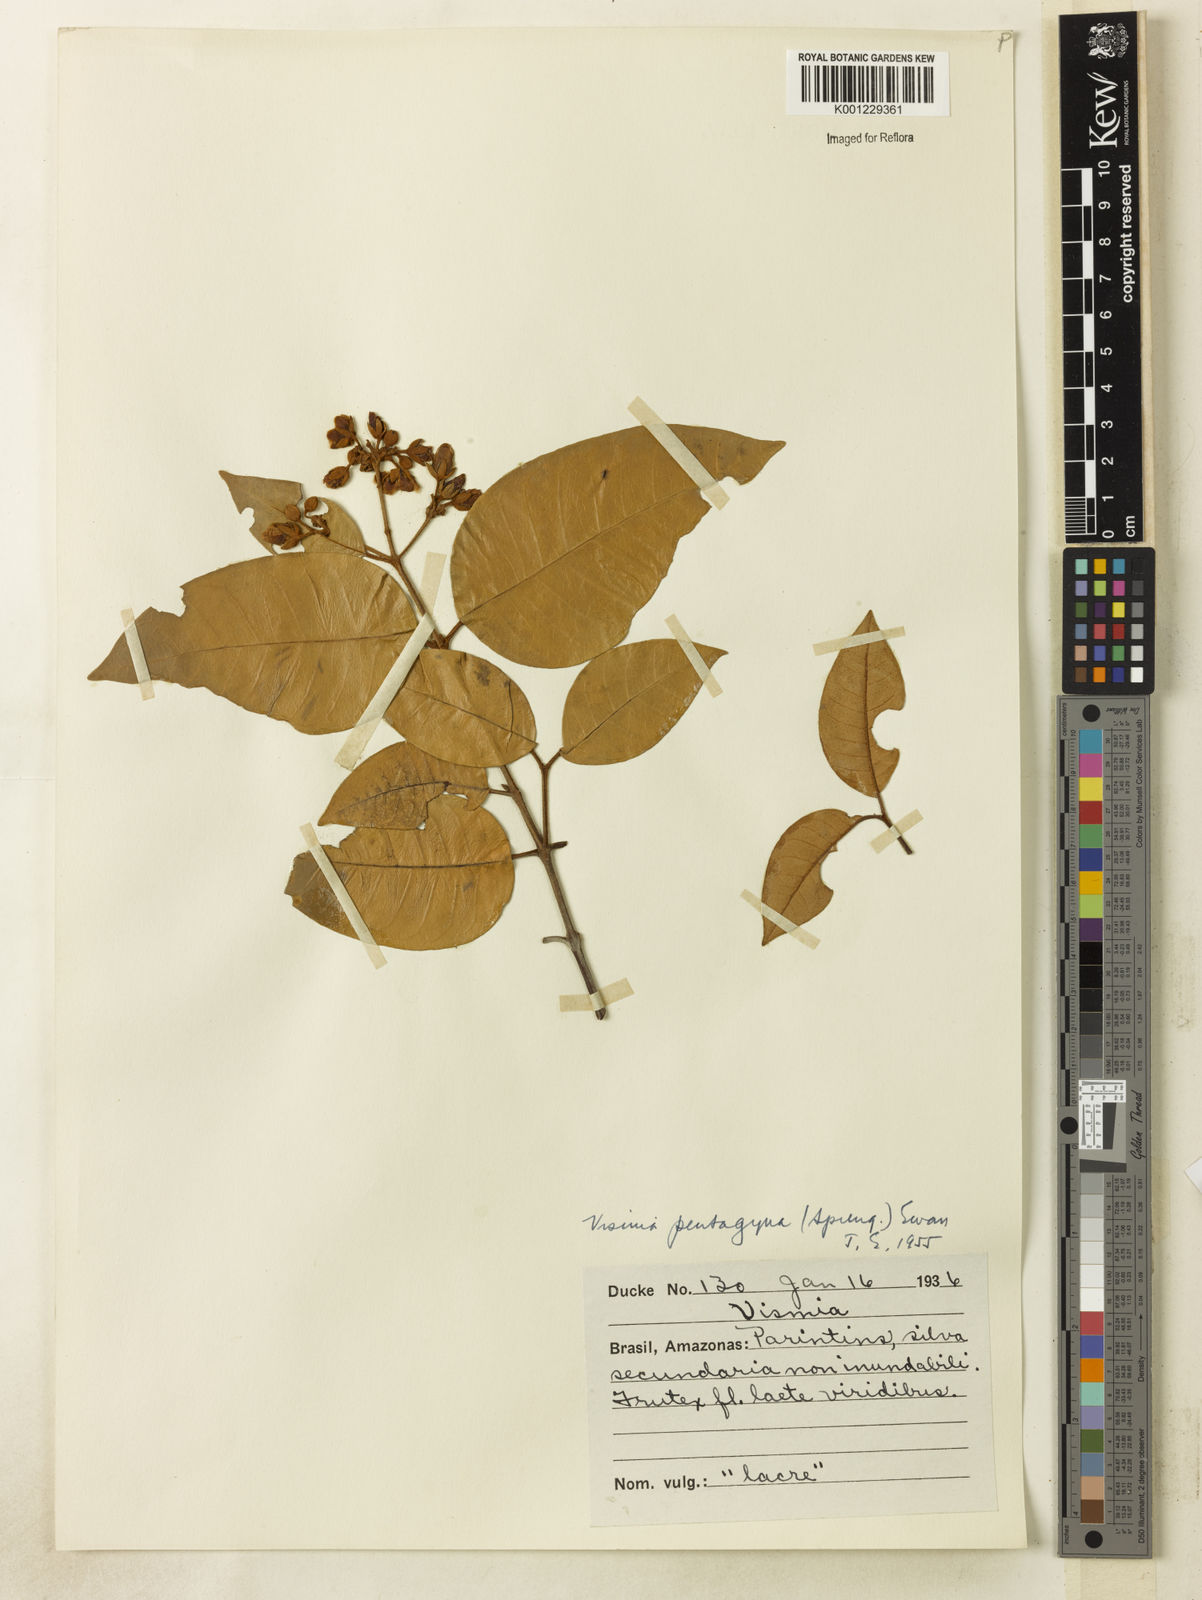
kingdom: Plantae
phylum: Tracheophyta
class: Magnoliopsida
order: Malpighiales
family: Hypericaceae
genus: Vismia
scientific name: Vismia gracilis
